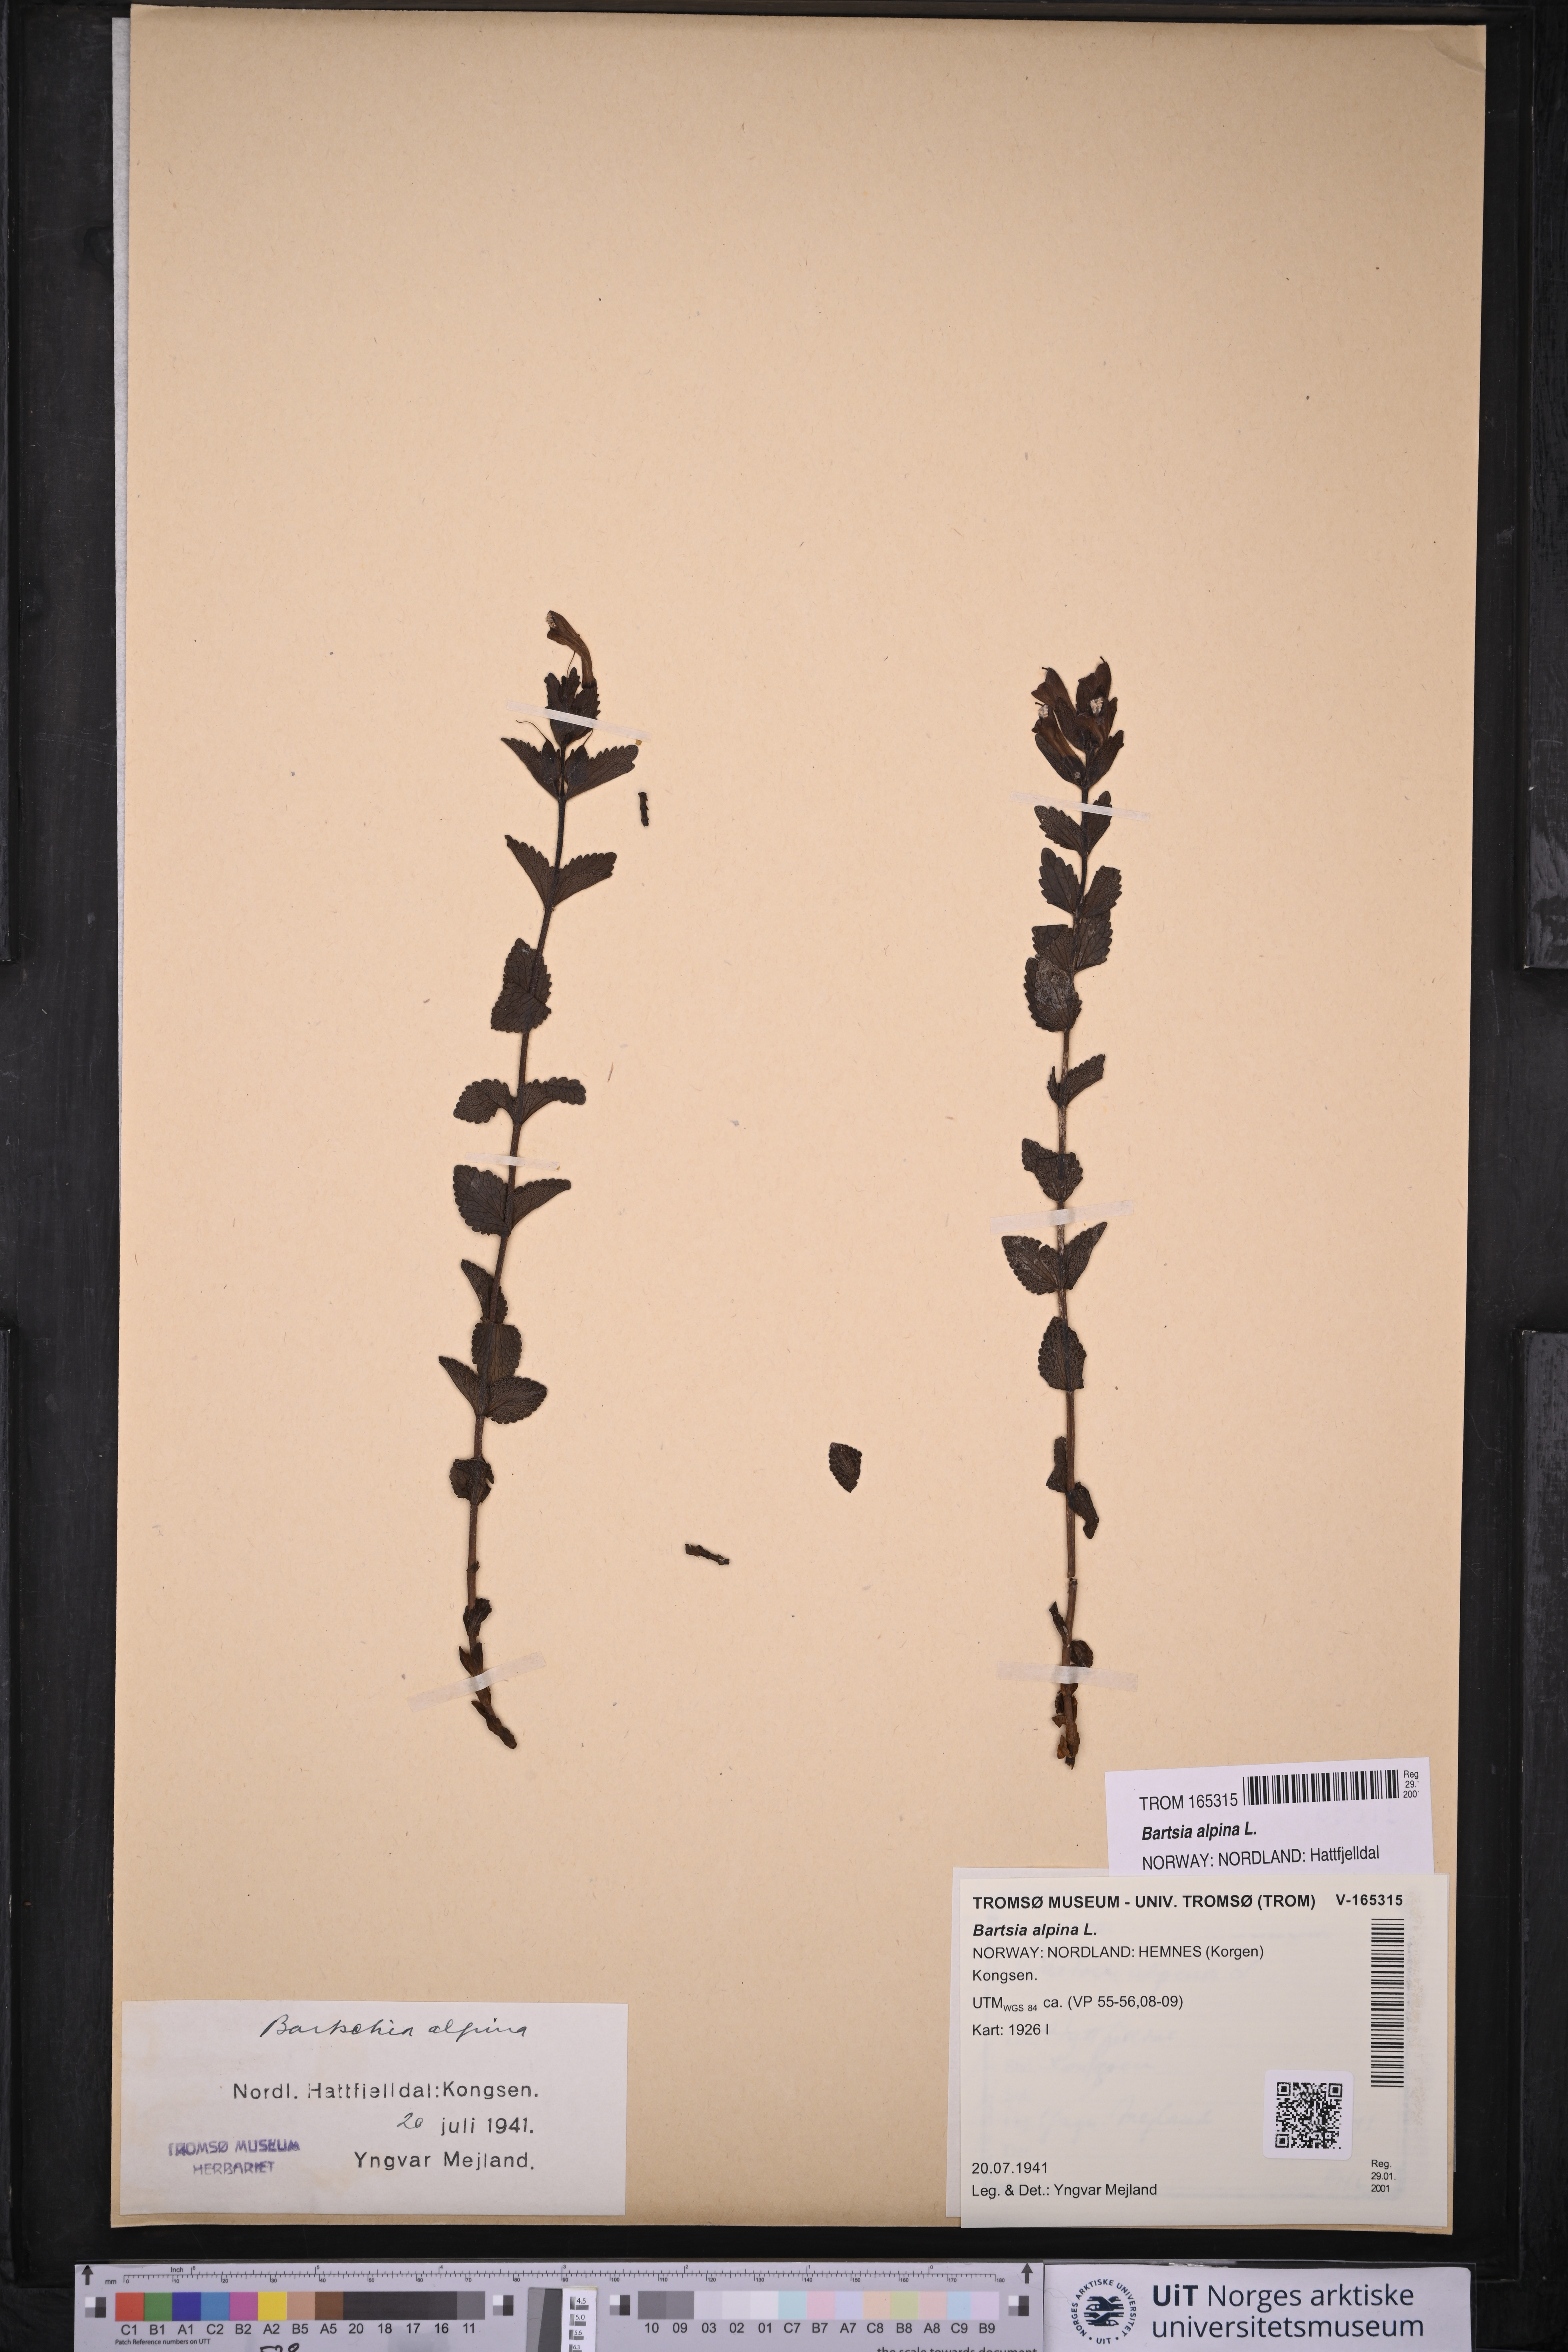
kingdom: Plantae
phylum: Tracheophyta
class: Magnoliopsida
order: Lamiales
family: Orobanchaceae
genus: Bartsia
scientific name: Bartsia alpina
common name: Alpine bartsia
